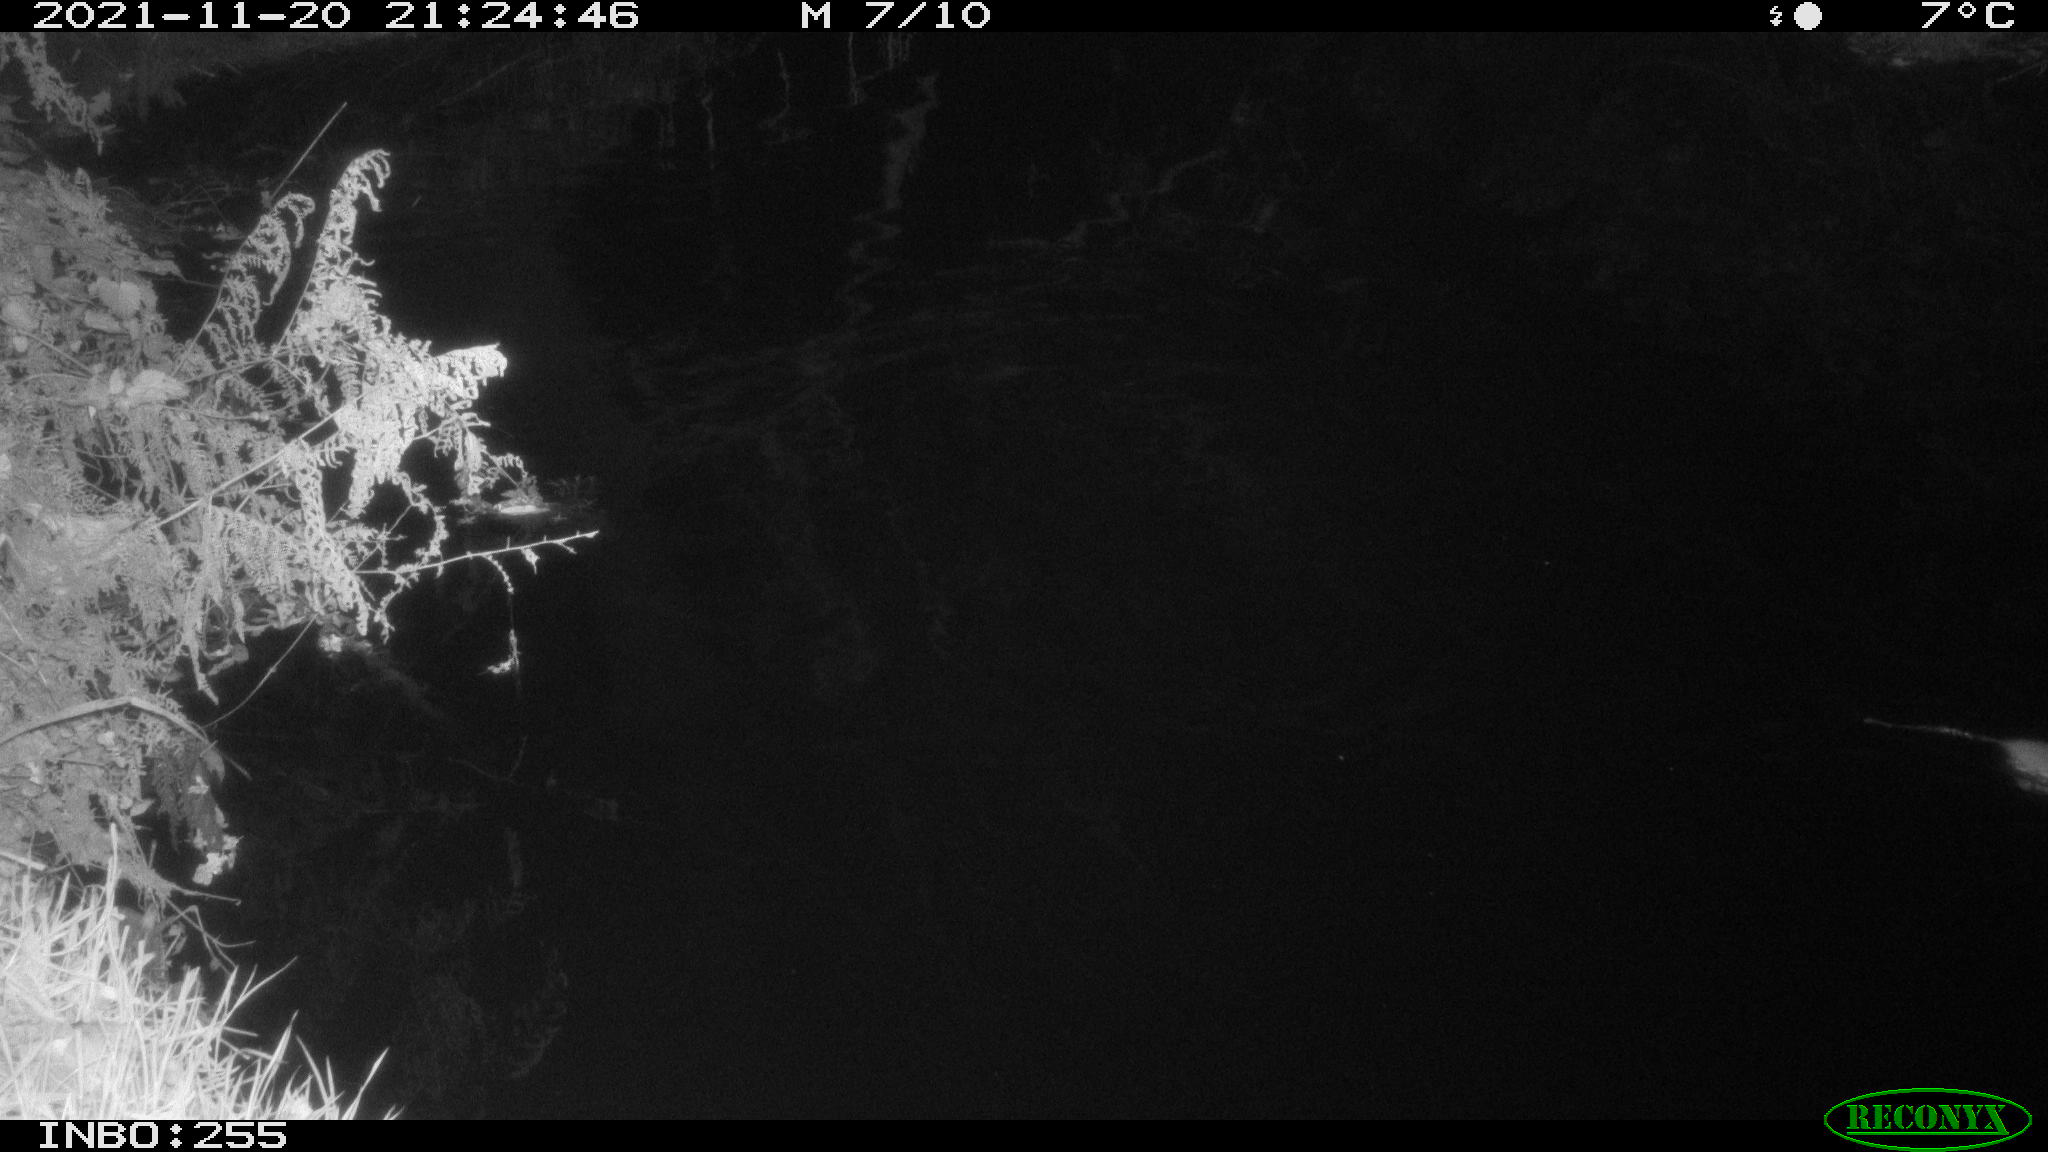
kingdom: Animalia
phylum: Chordata
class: Mammalia
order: Rodentia
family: Muridae
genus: Rattus
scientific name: Rattus norvegicus
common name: Brown rat
